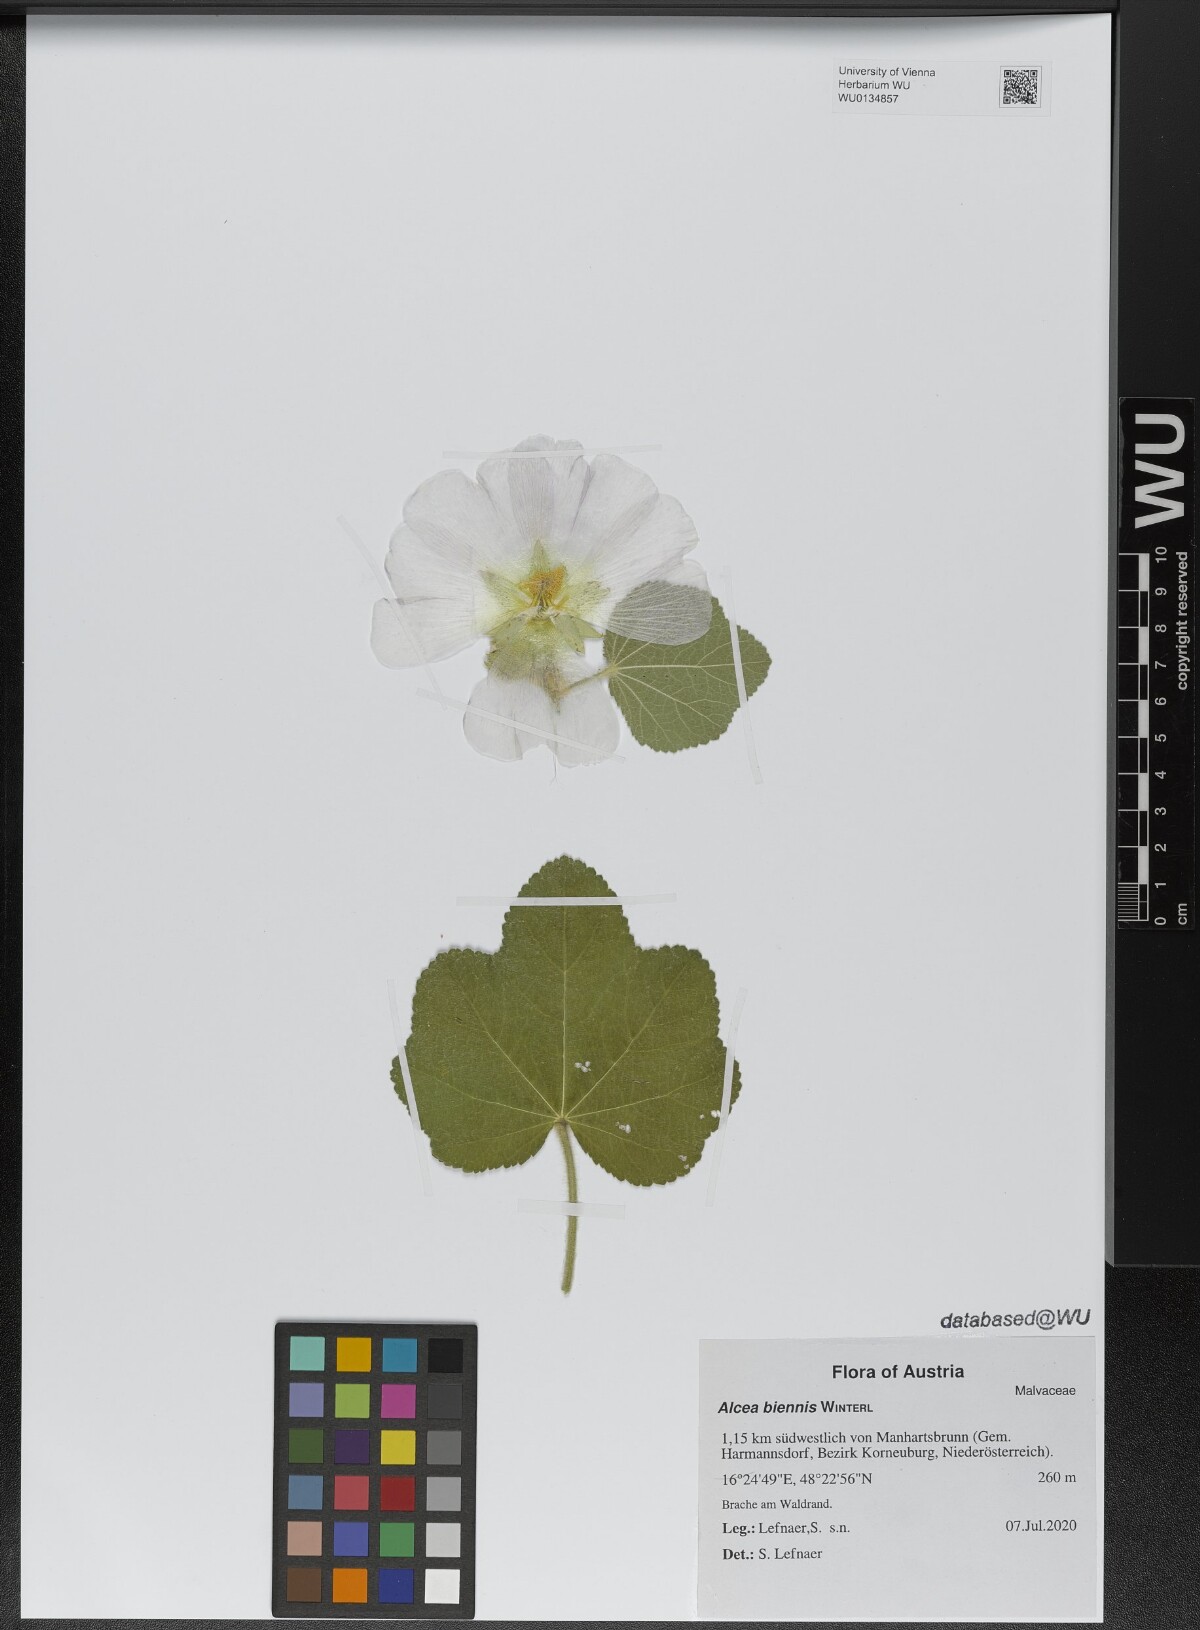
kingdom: Plantae
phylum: Tracheophyta
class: Magnoliopsida
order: Malvales
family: Malvaceae
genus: Alcea
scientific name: Alcea biennis
